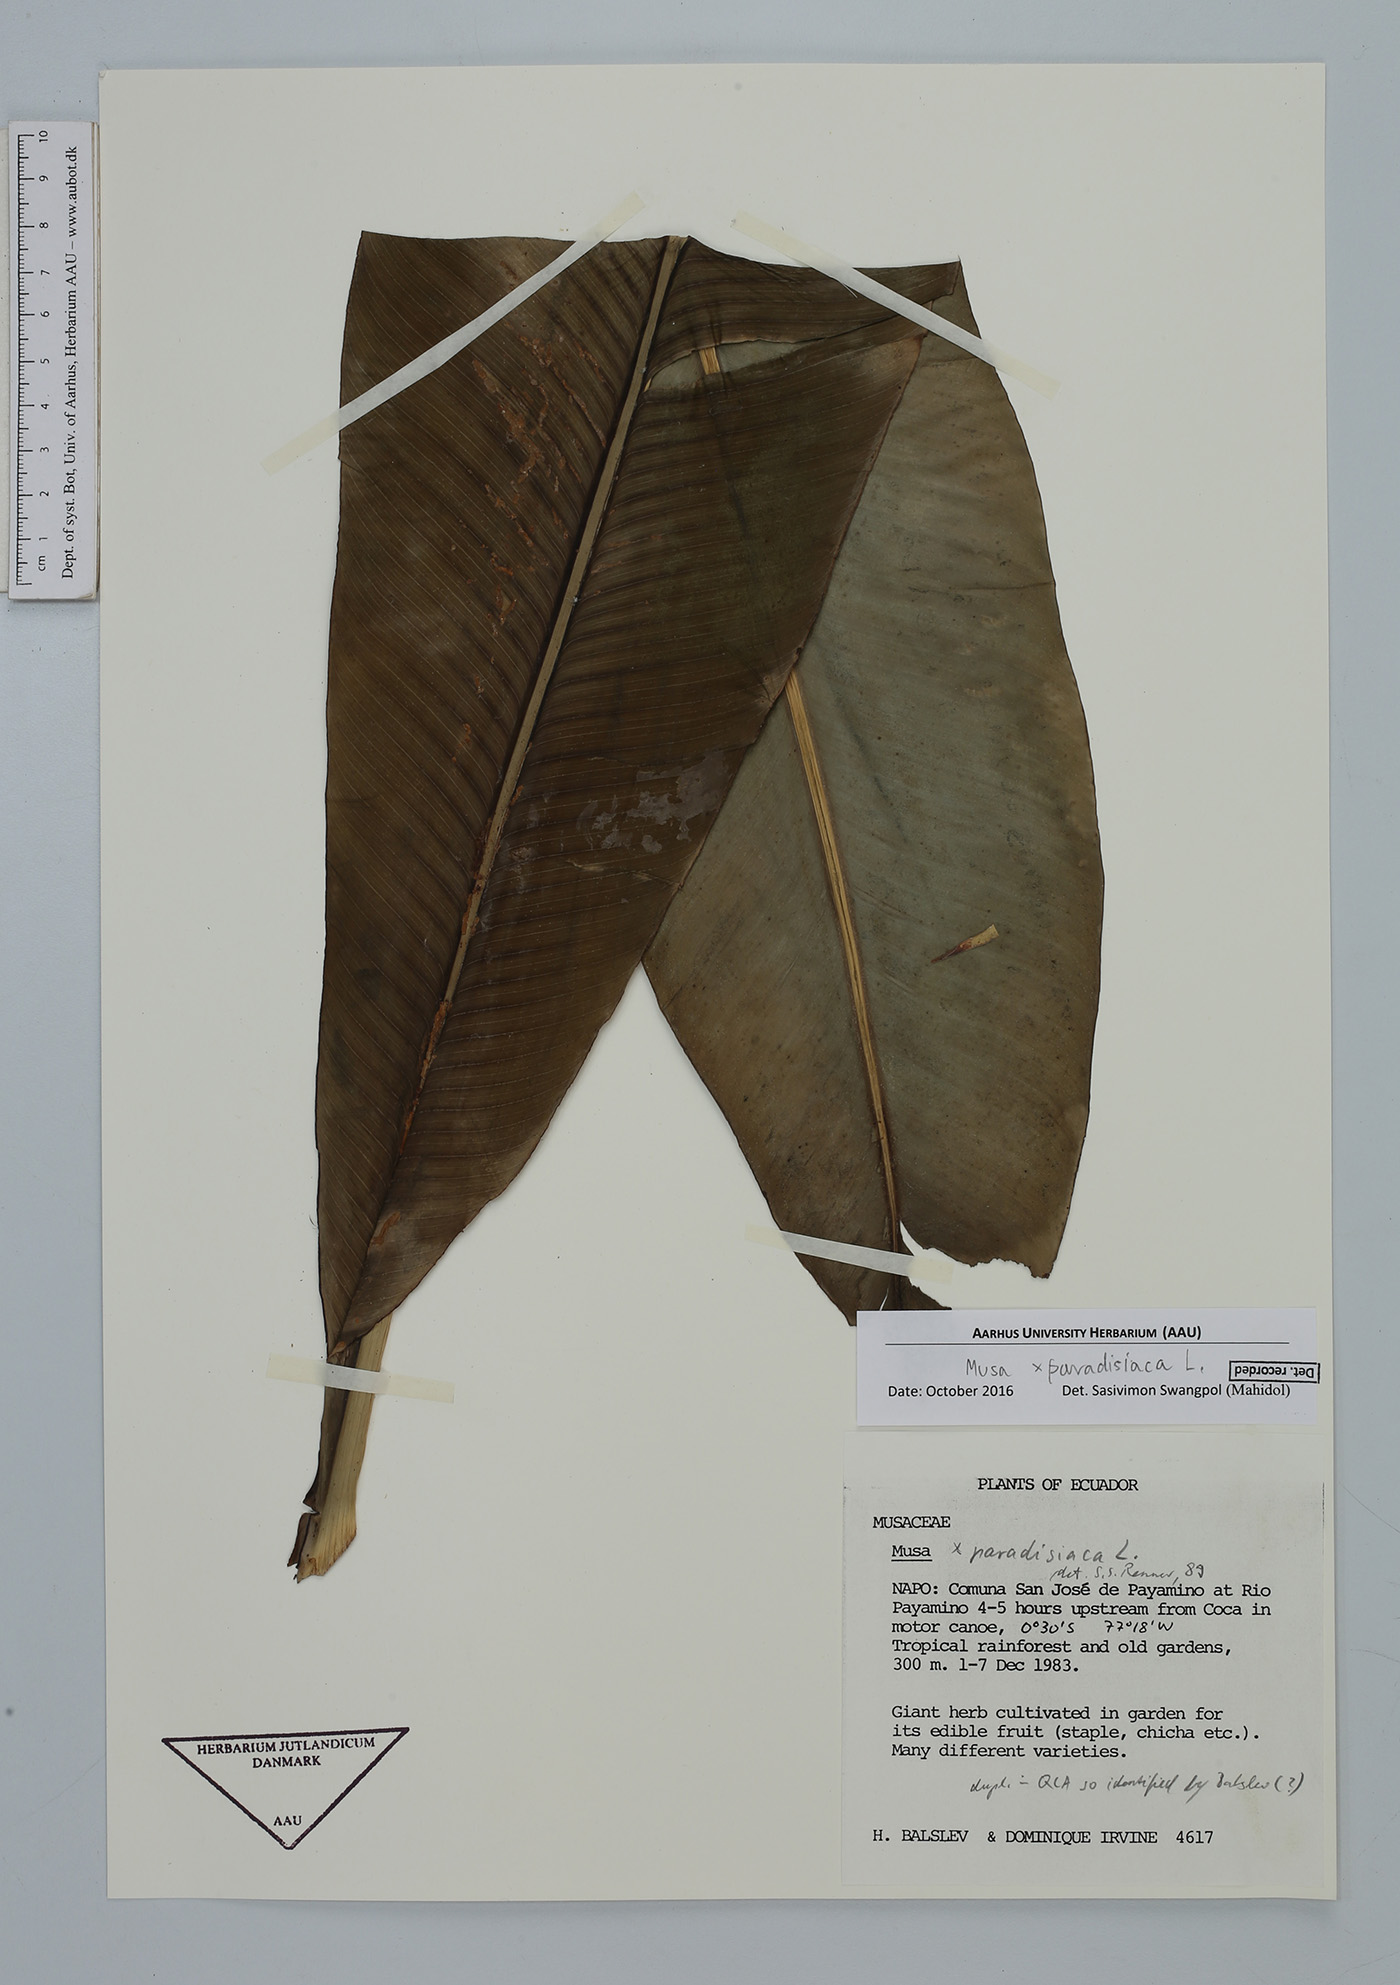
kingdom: Plantae
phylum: Tracheophyta
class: Liliopsida
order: Zingiberales
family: Musaceae
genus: Musa
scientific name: Musa paradisiaca
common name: French plantain
